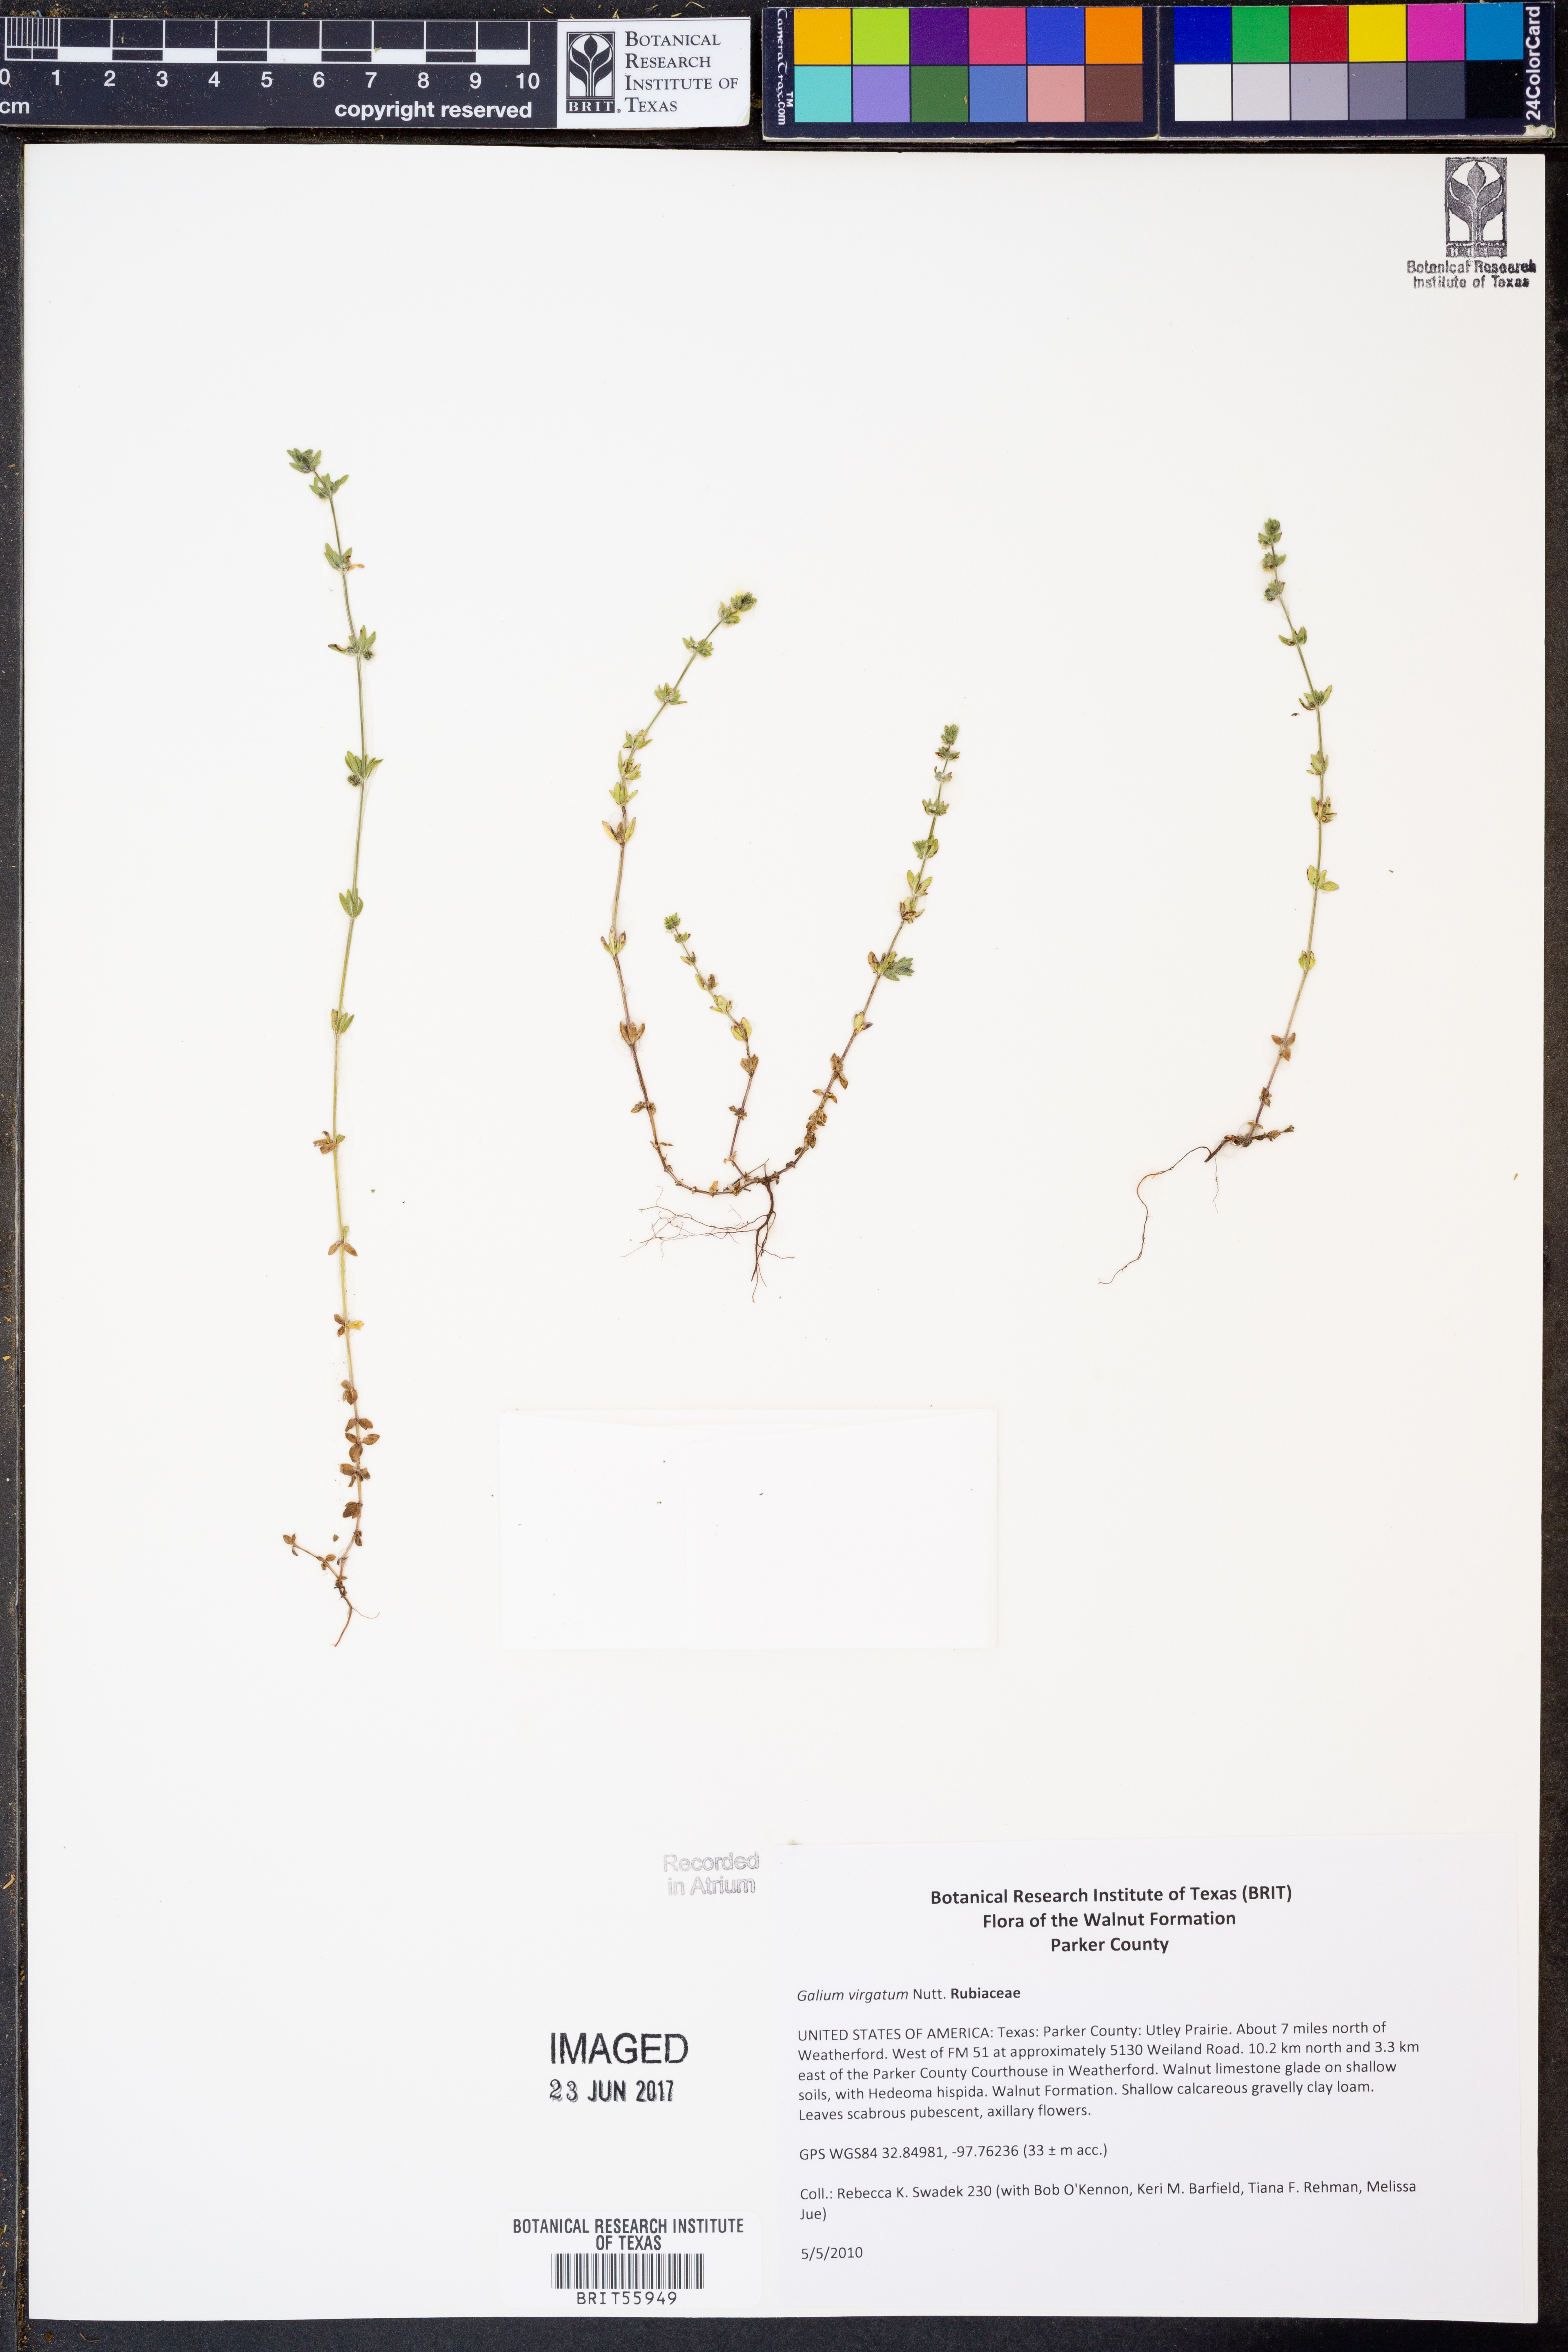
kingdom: Plantae
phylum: Tracheophyta
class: Magnoliopsida
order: Gentianales
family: Rubiaceae
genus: Galium
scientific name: Galium virgatum
